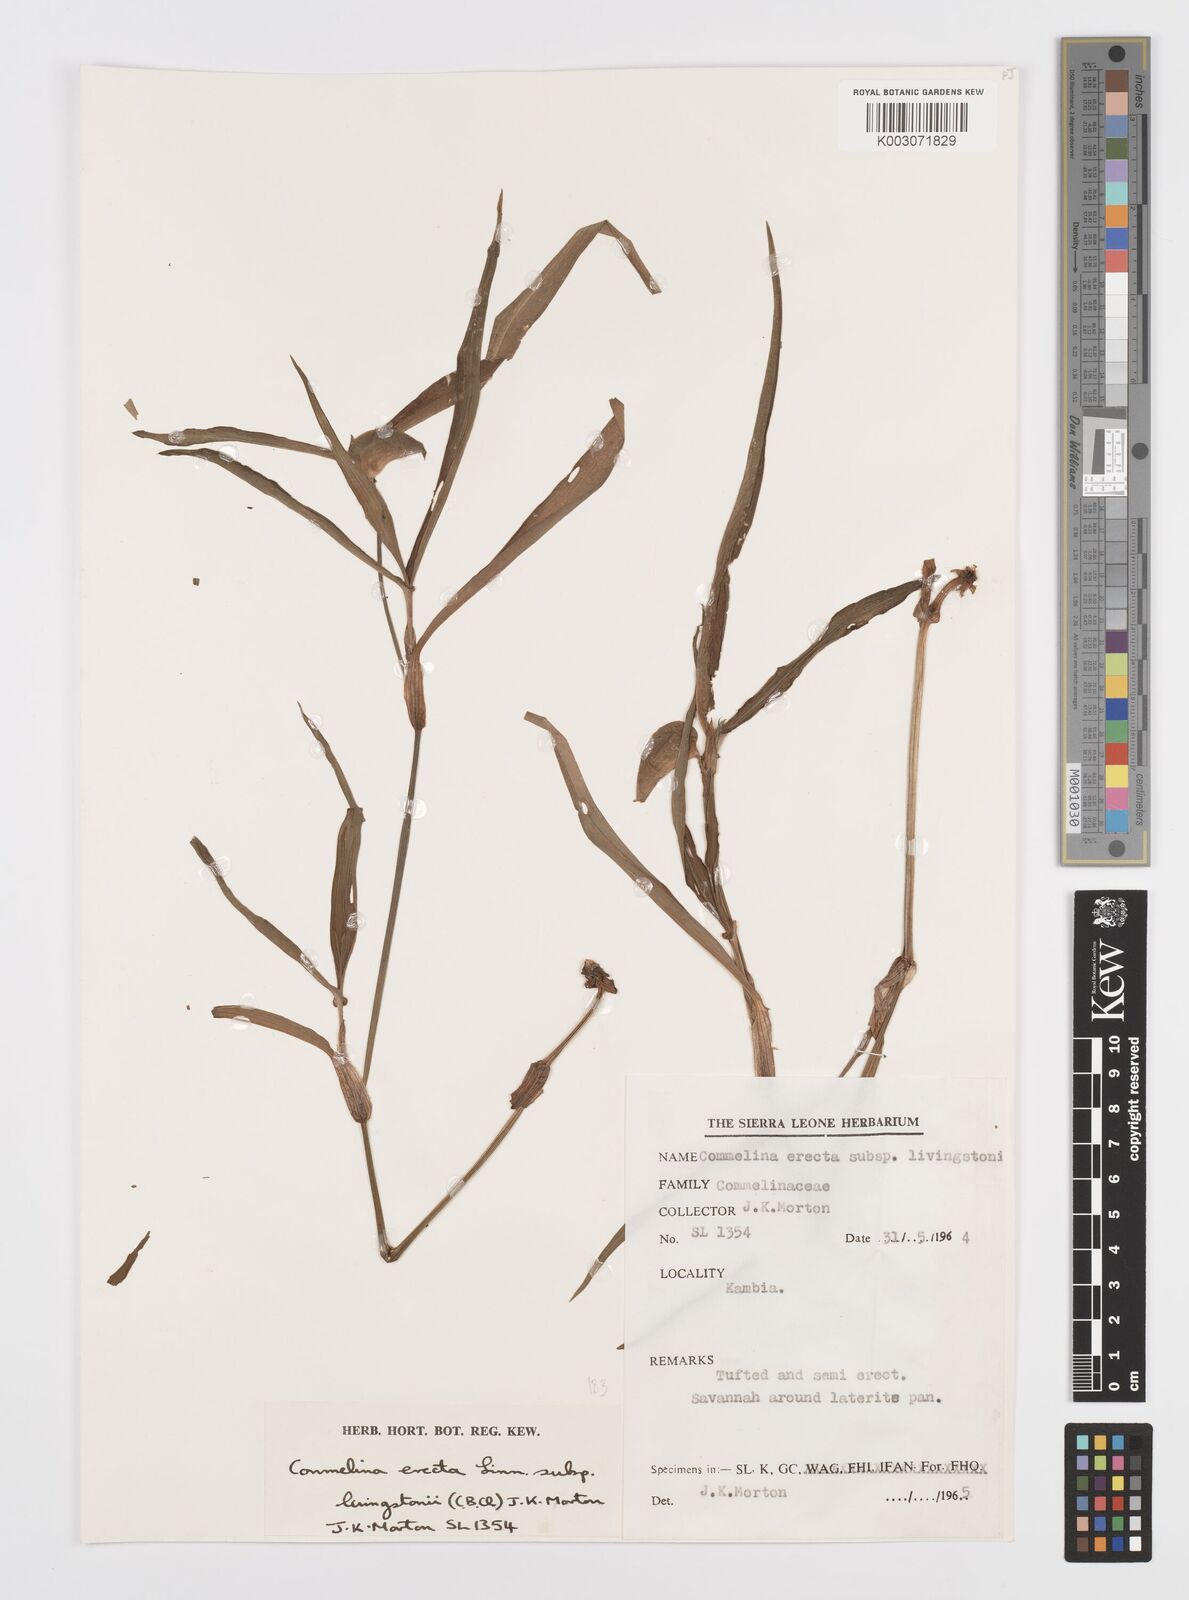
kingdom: Plantae
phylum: Tracheophyta
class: Liliopsida
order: Commelinales
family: Commelinaceae
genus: Commelina
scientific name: Commelina erecta
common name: Blousel blommetjie
